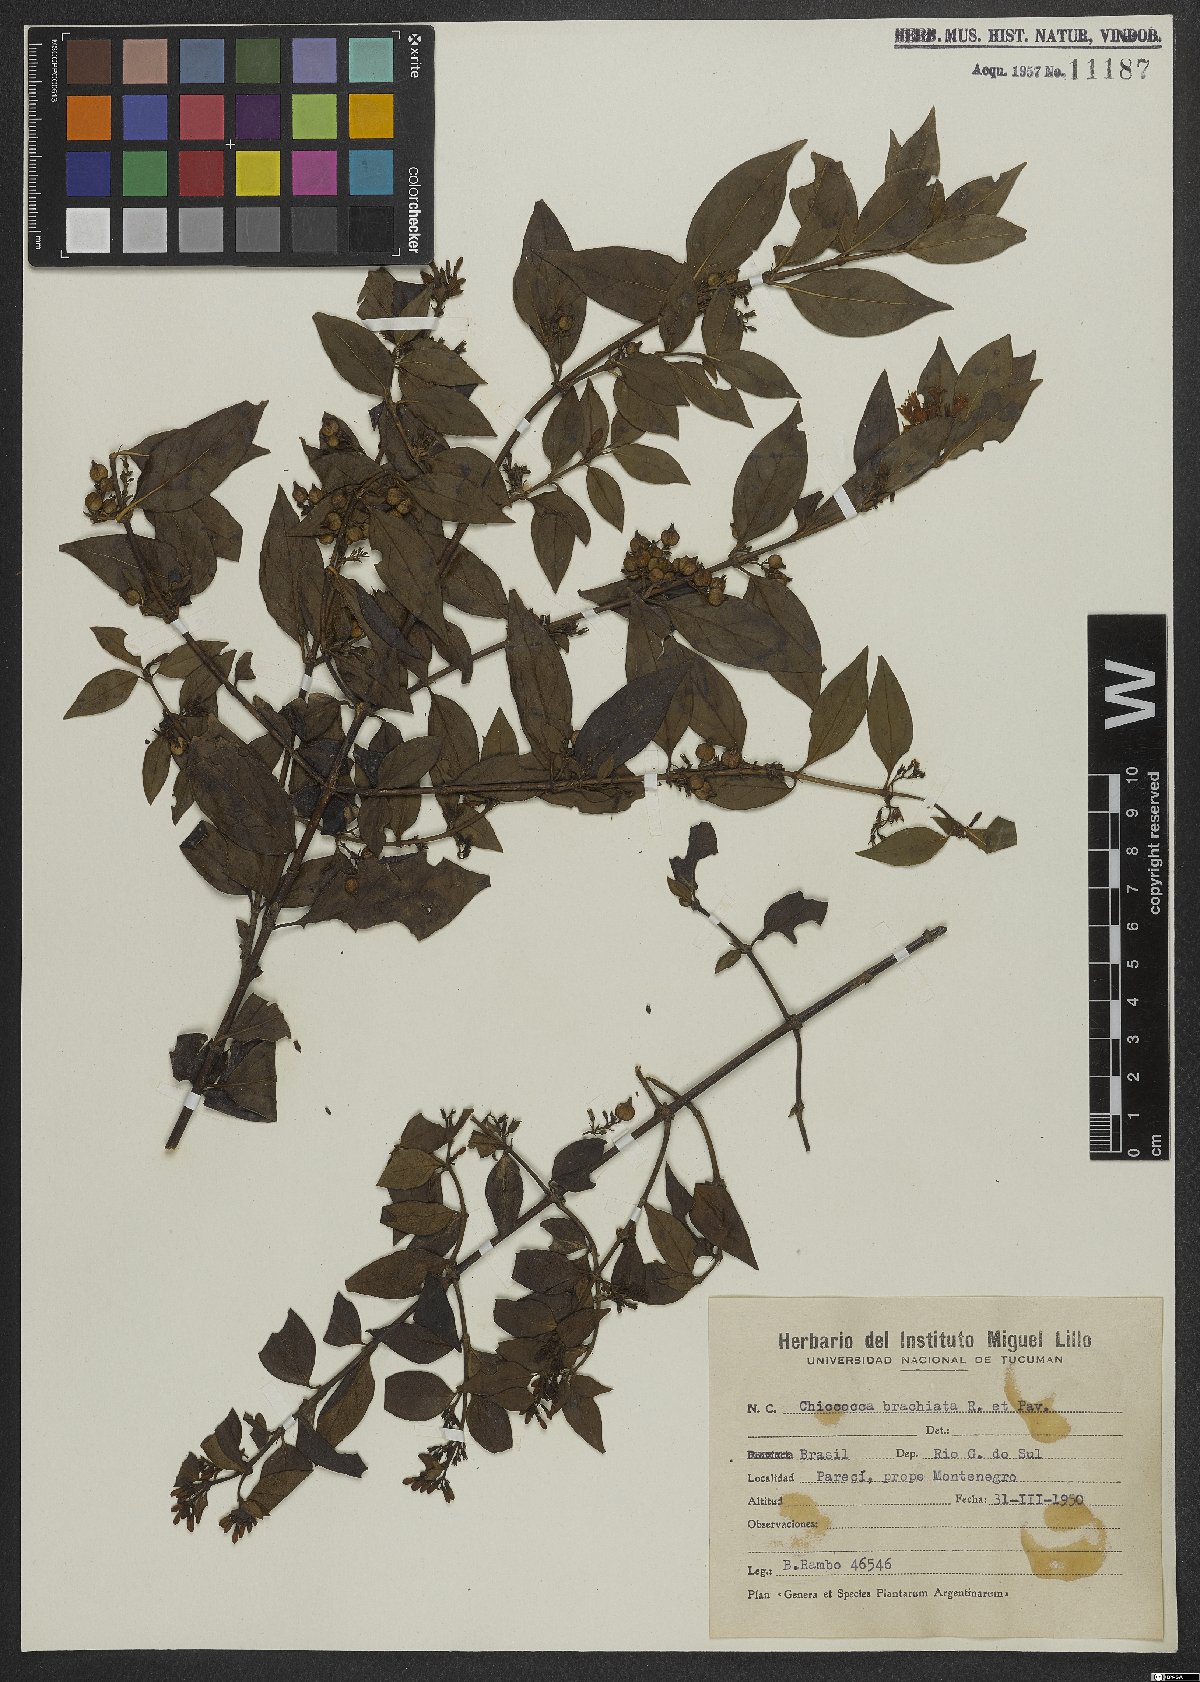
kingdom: Plantae
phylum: Tracheophyta
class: Magnoliopsida
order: Gentianales
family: Rubiaceae
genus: Chiococca
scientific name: Chiococca alba
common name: Snowberry
